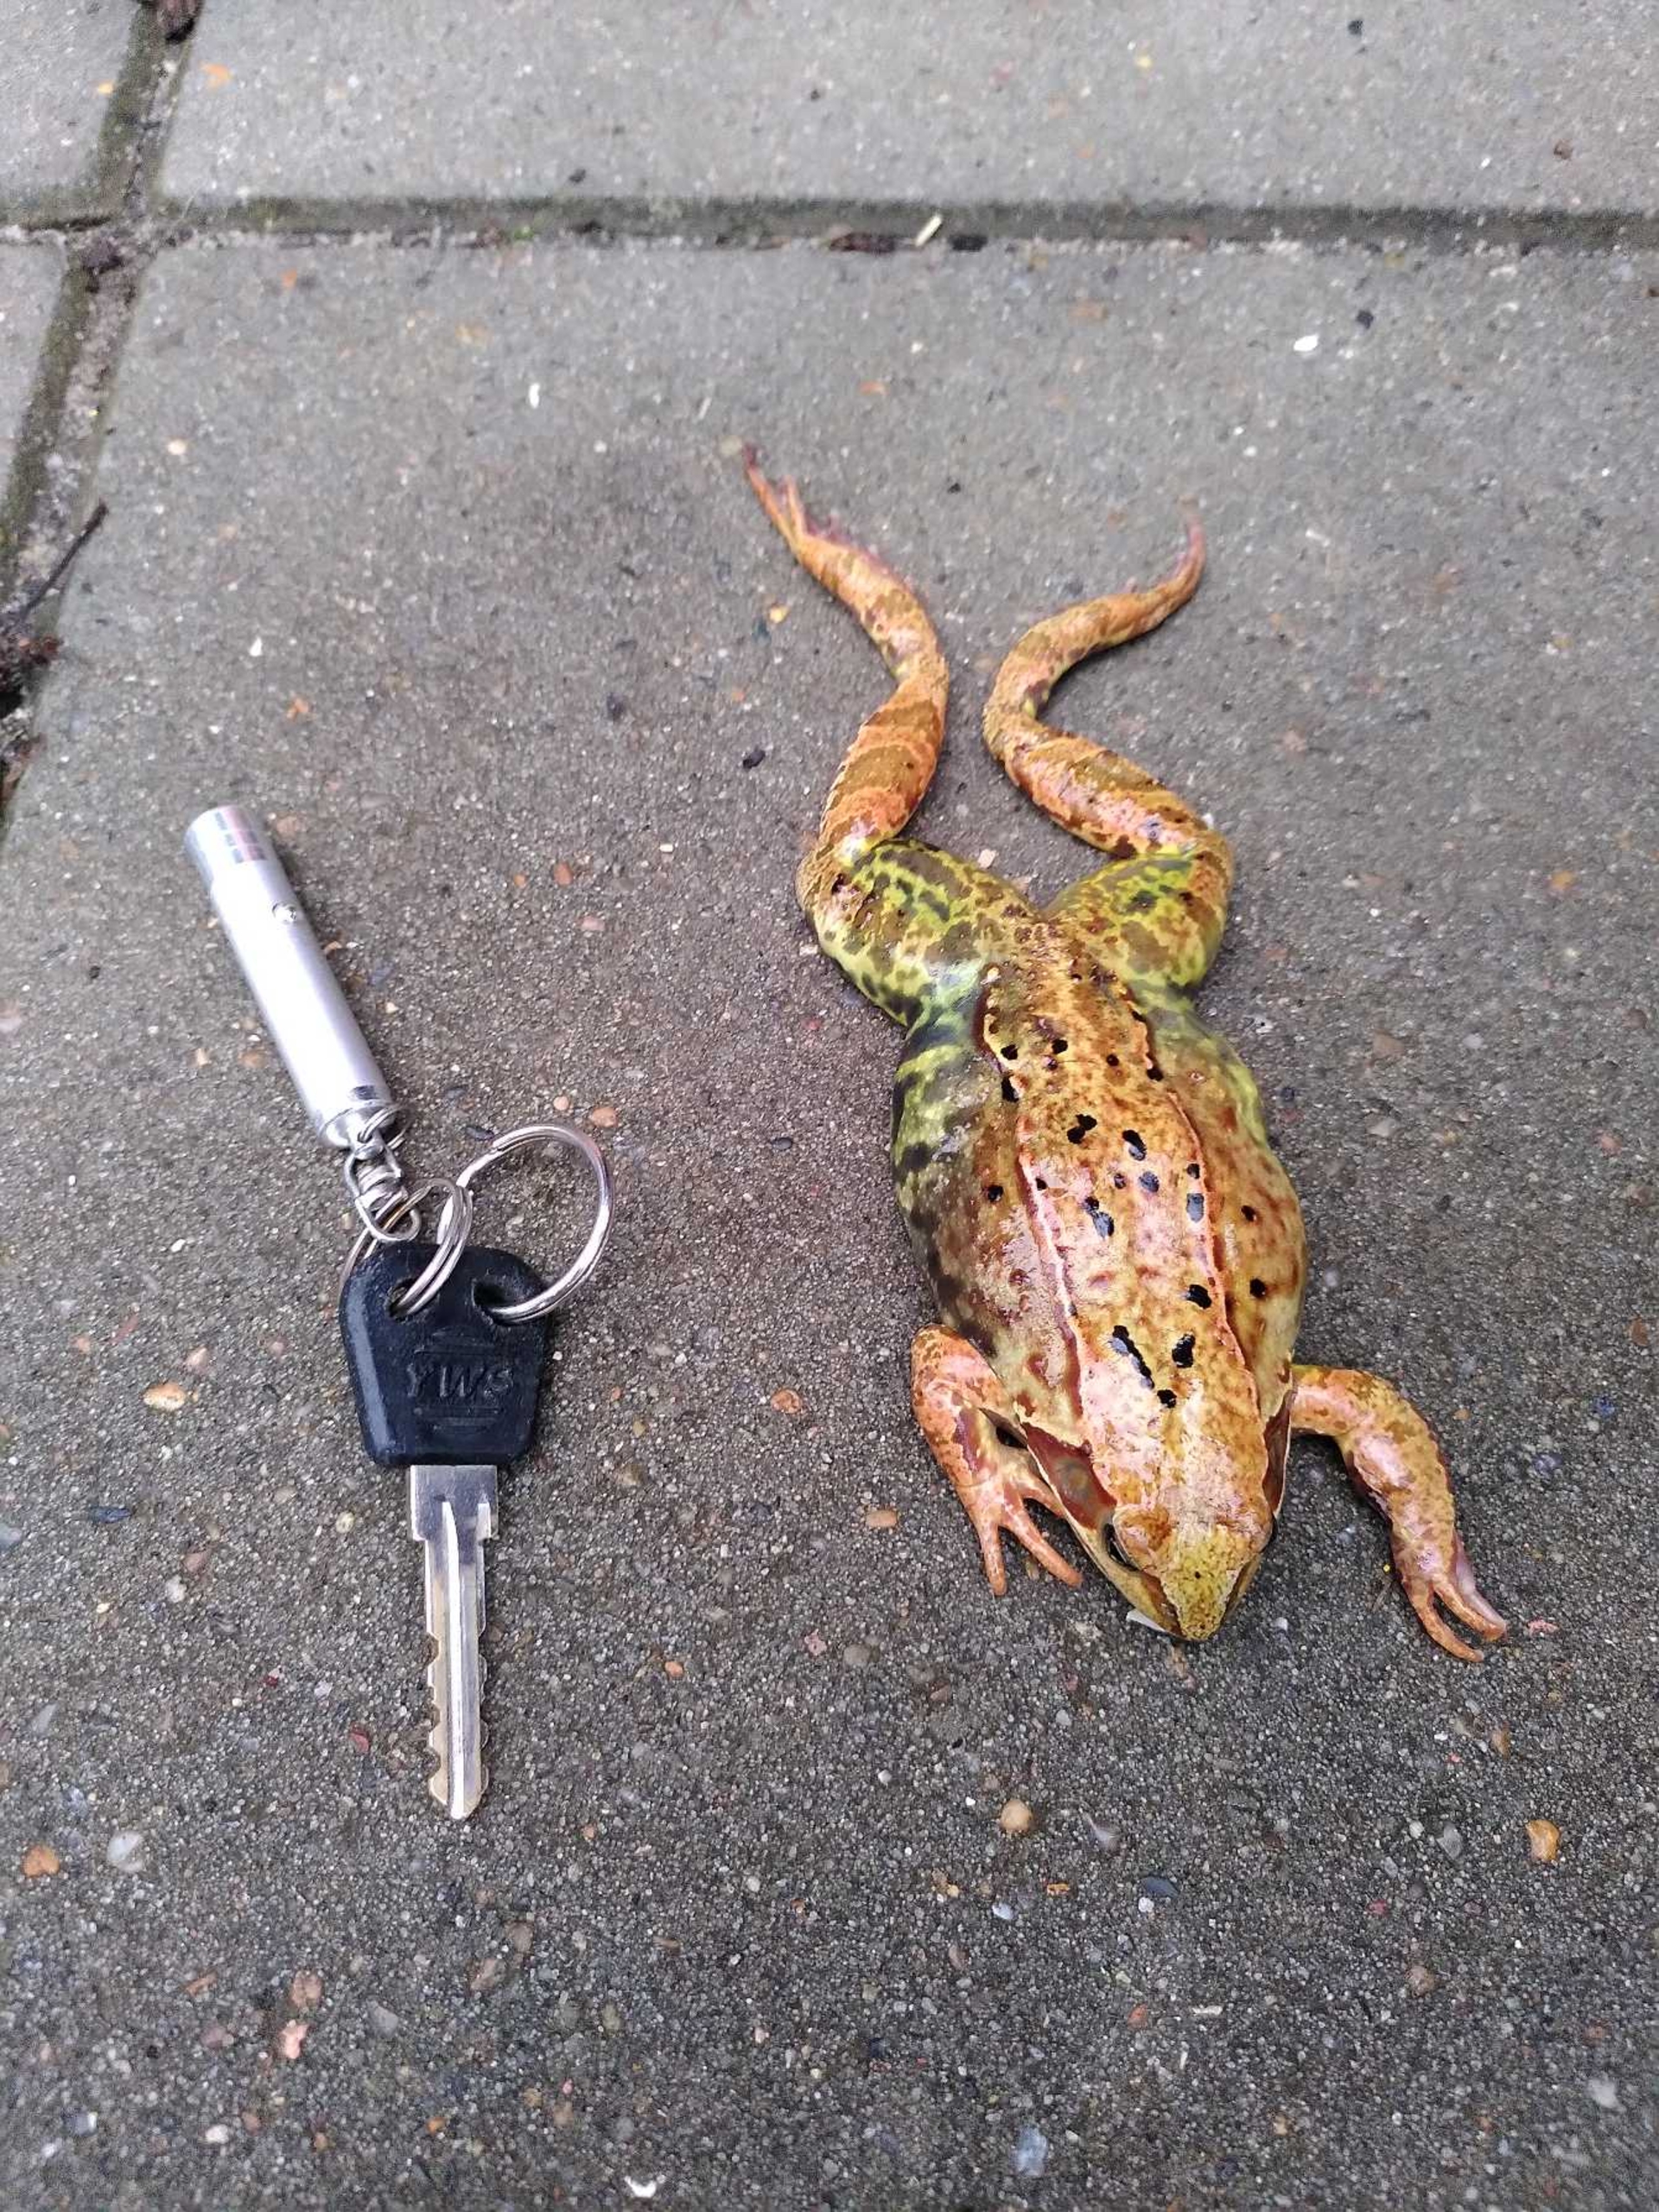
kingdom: Animalia
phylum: Chordata
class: Amphibia
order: Anura
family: Ranidae
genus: Rana
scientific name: Rana temporaria
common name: Butsnudet frø
